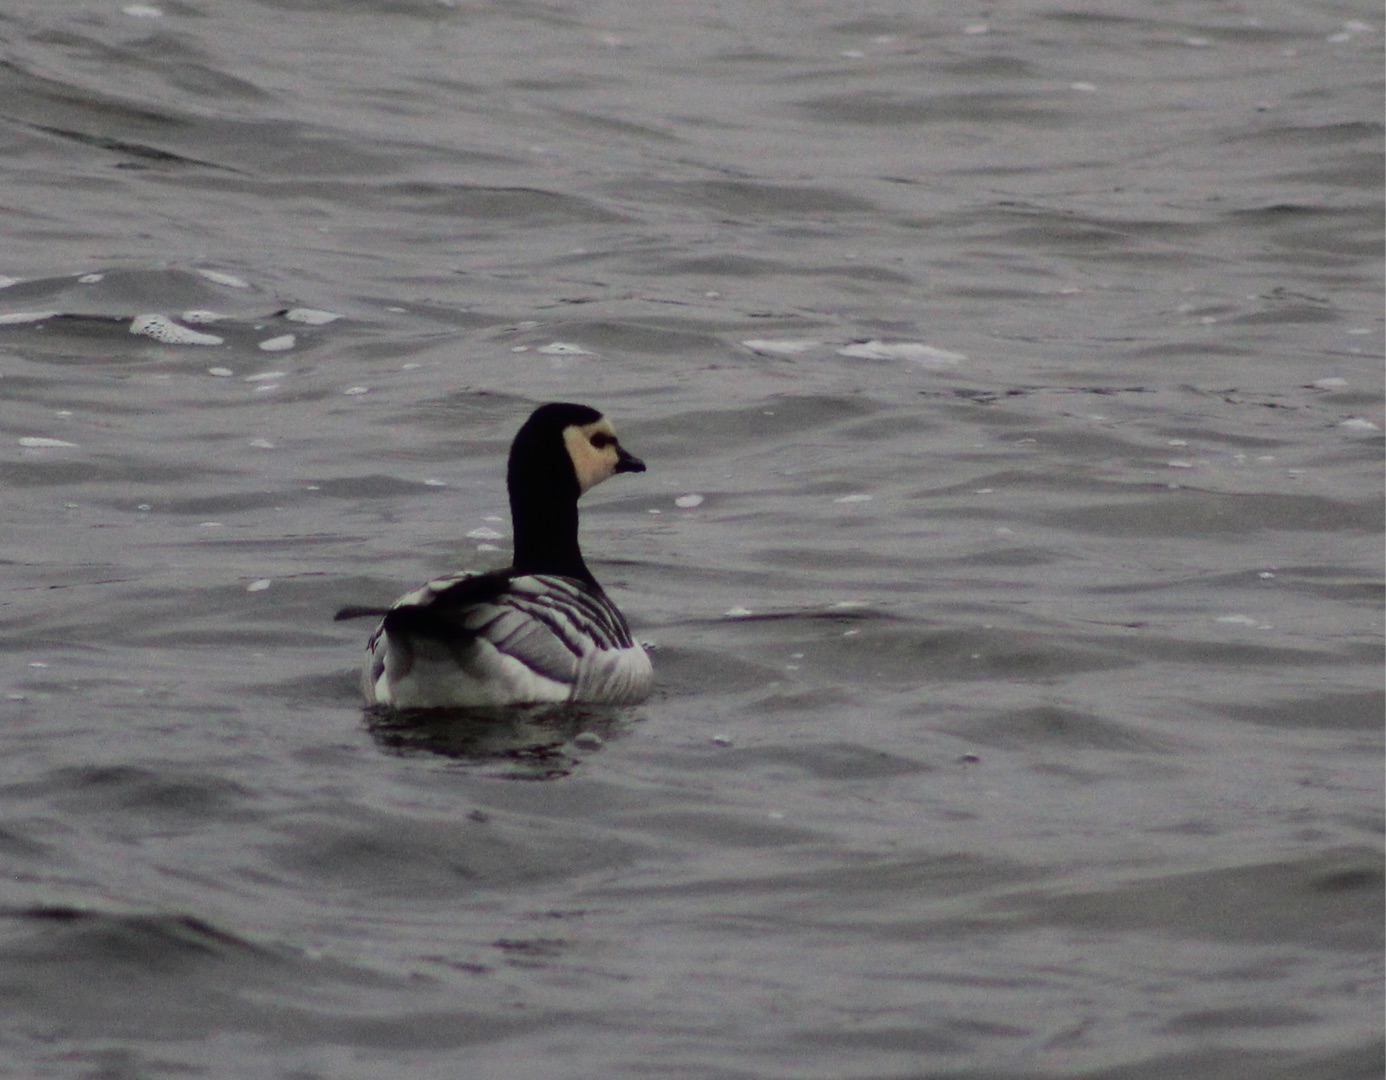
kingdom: Animalia
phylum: Chordata
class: Aves
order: Anseriformes
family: Anatidae
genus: Branta
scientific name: Branta leucopsis
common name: Bramgås
